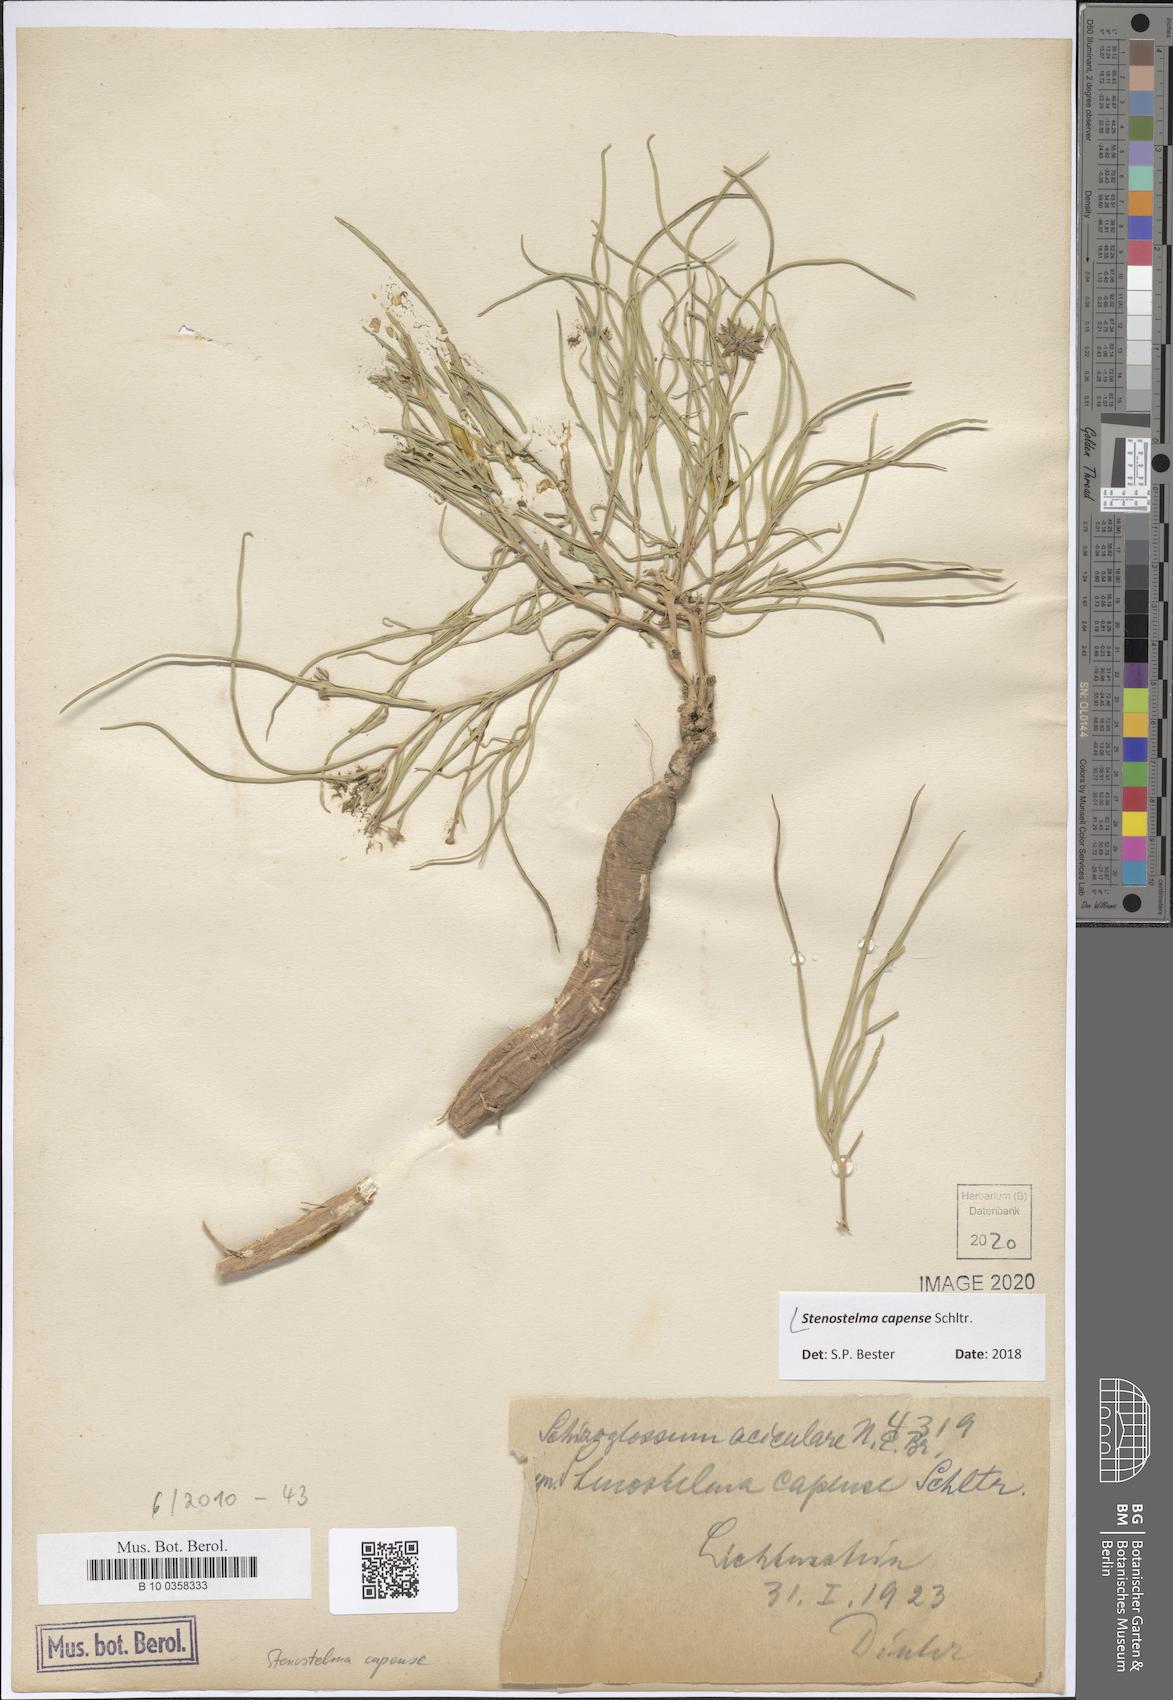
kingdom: Plantae
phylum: Tracheophyta
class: Magnoliopsida
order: Gentianales
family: Apocynaceae
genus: Stenostelma
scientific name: Stenostelma capense
